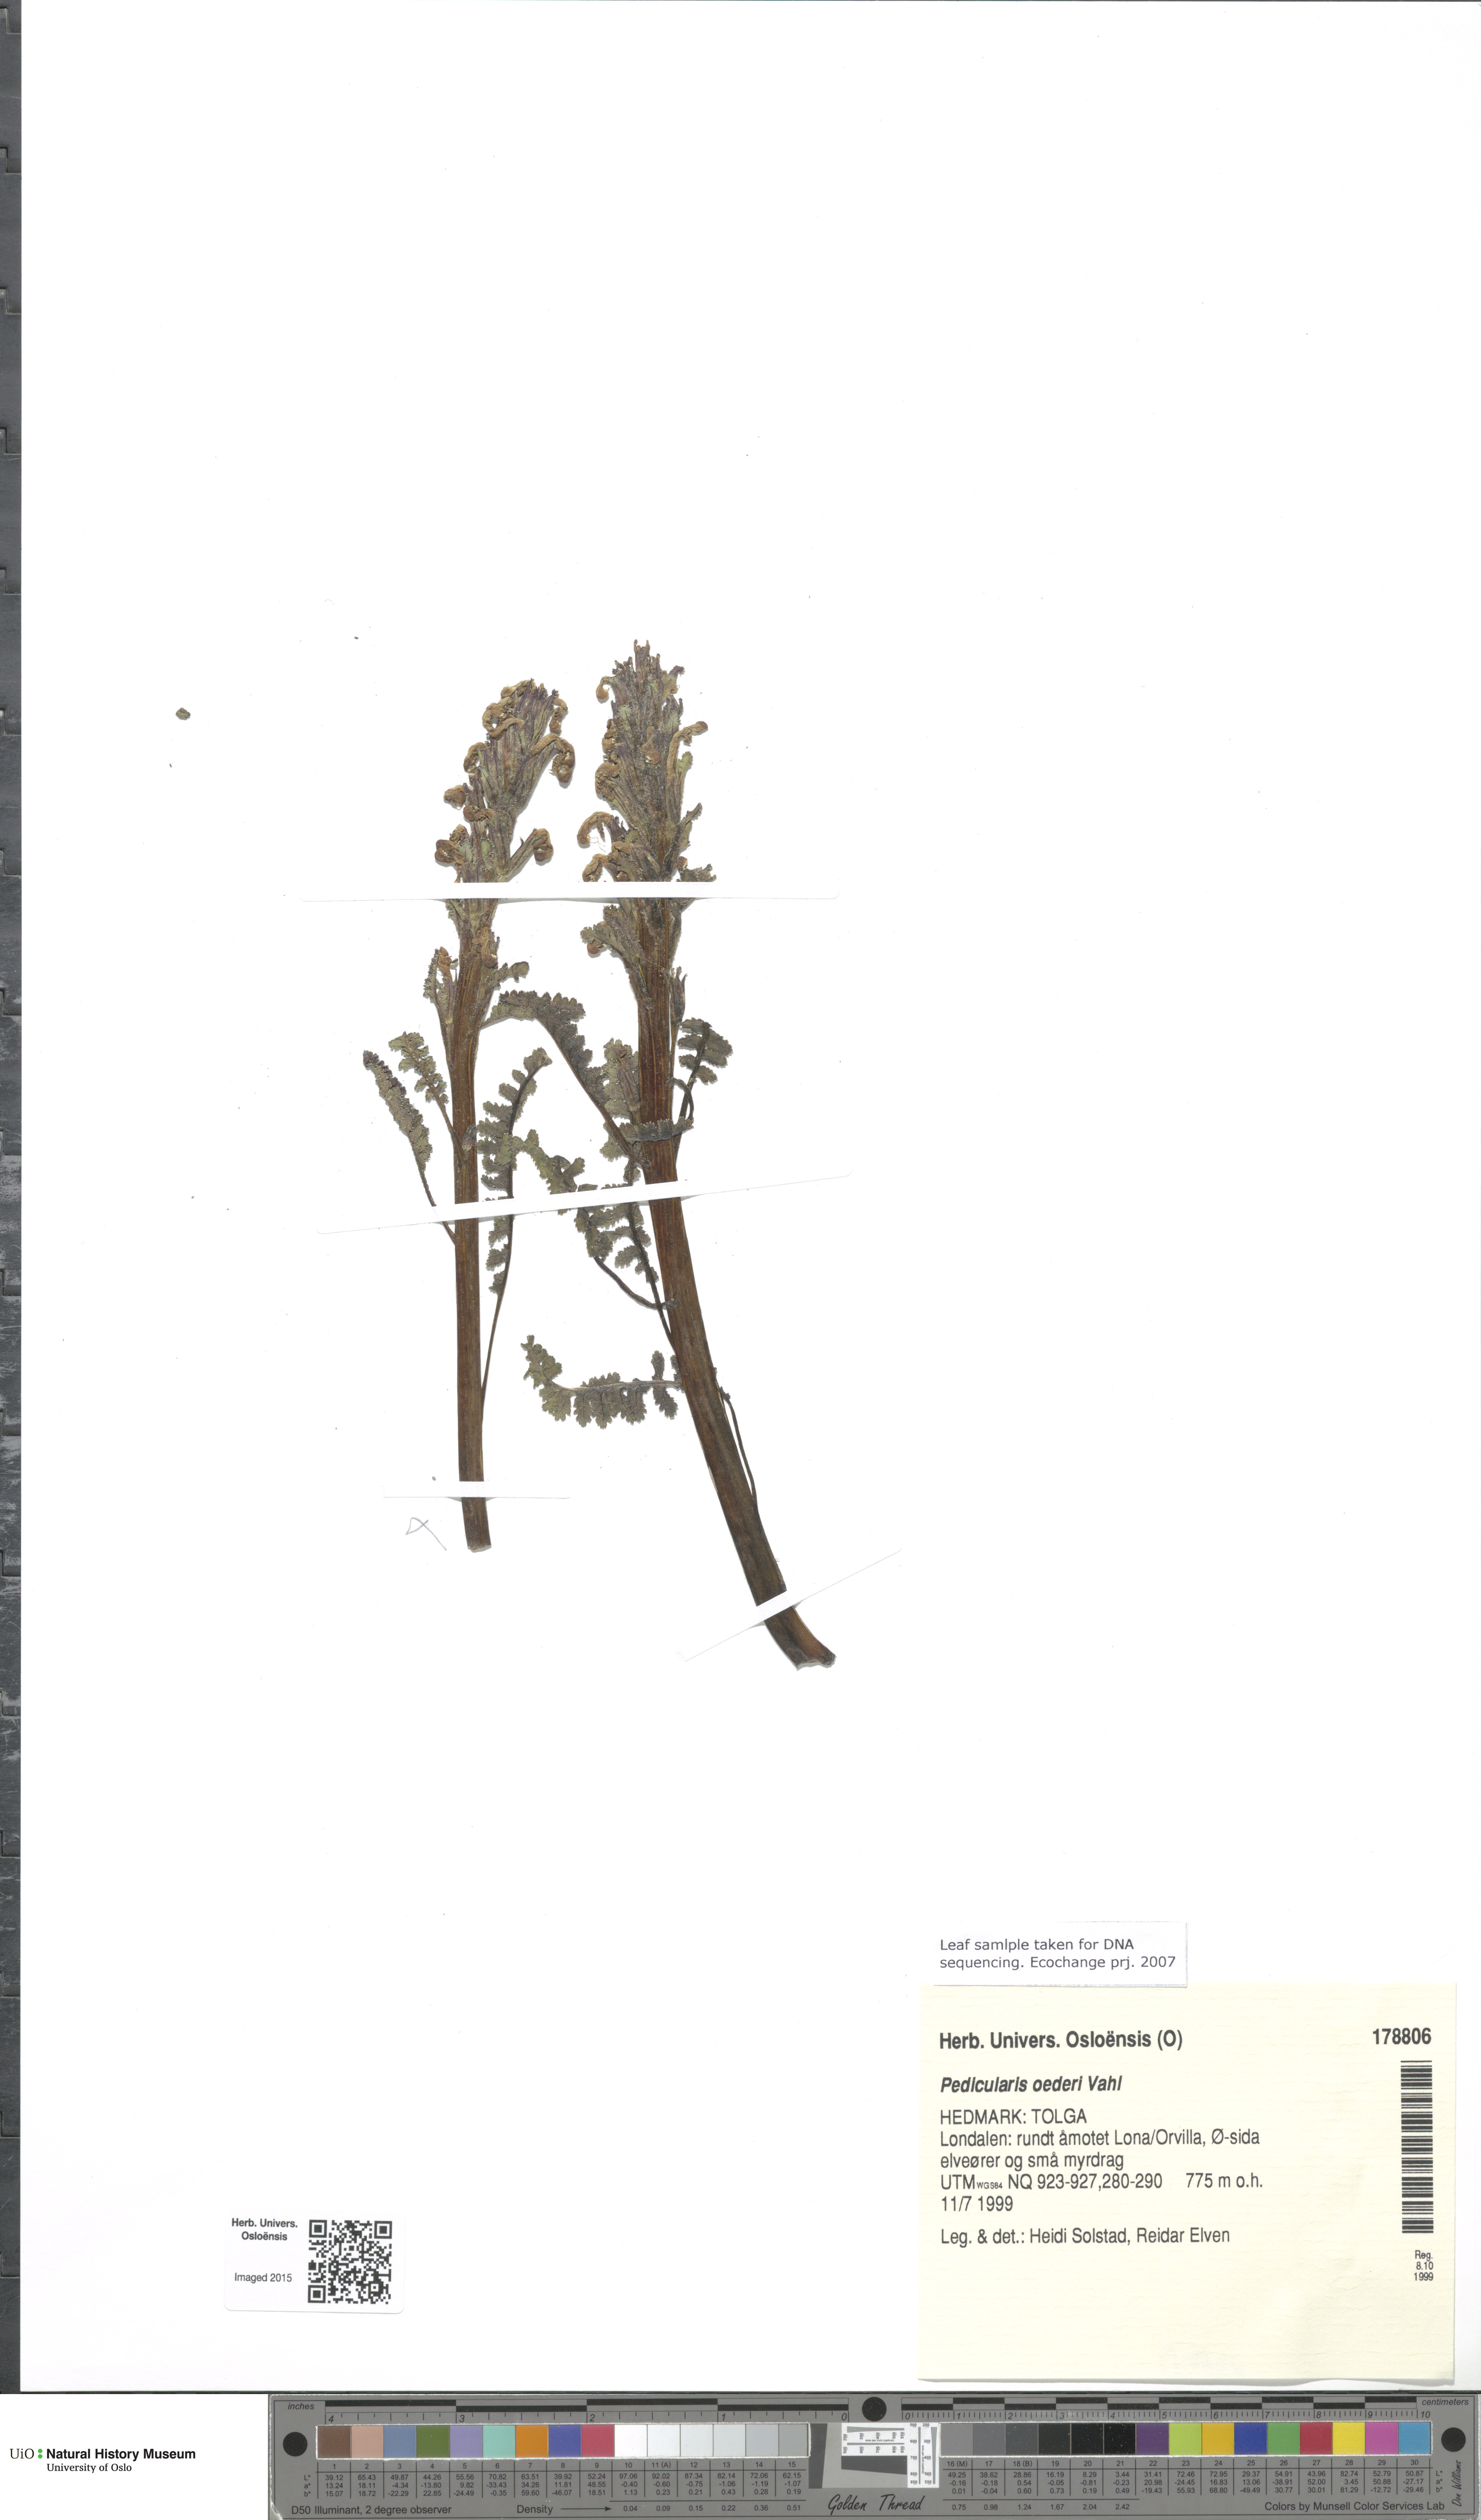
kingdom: Plantae
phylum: Tracheophyta
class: Magnoliopsida
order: Lamiales
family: Orobanchaceae
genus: Pedicularis
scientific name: Pedicularis oederi
